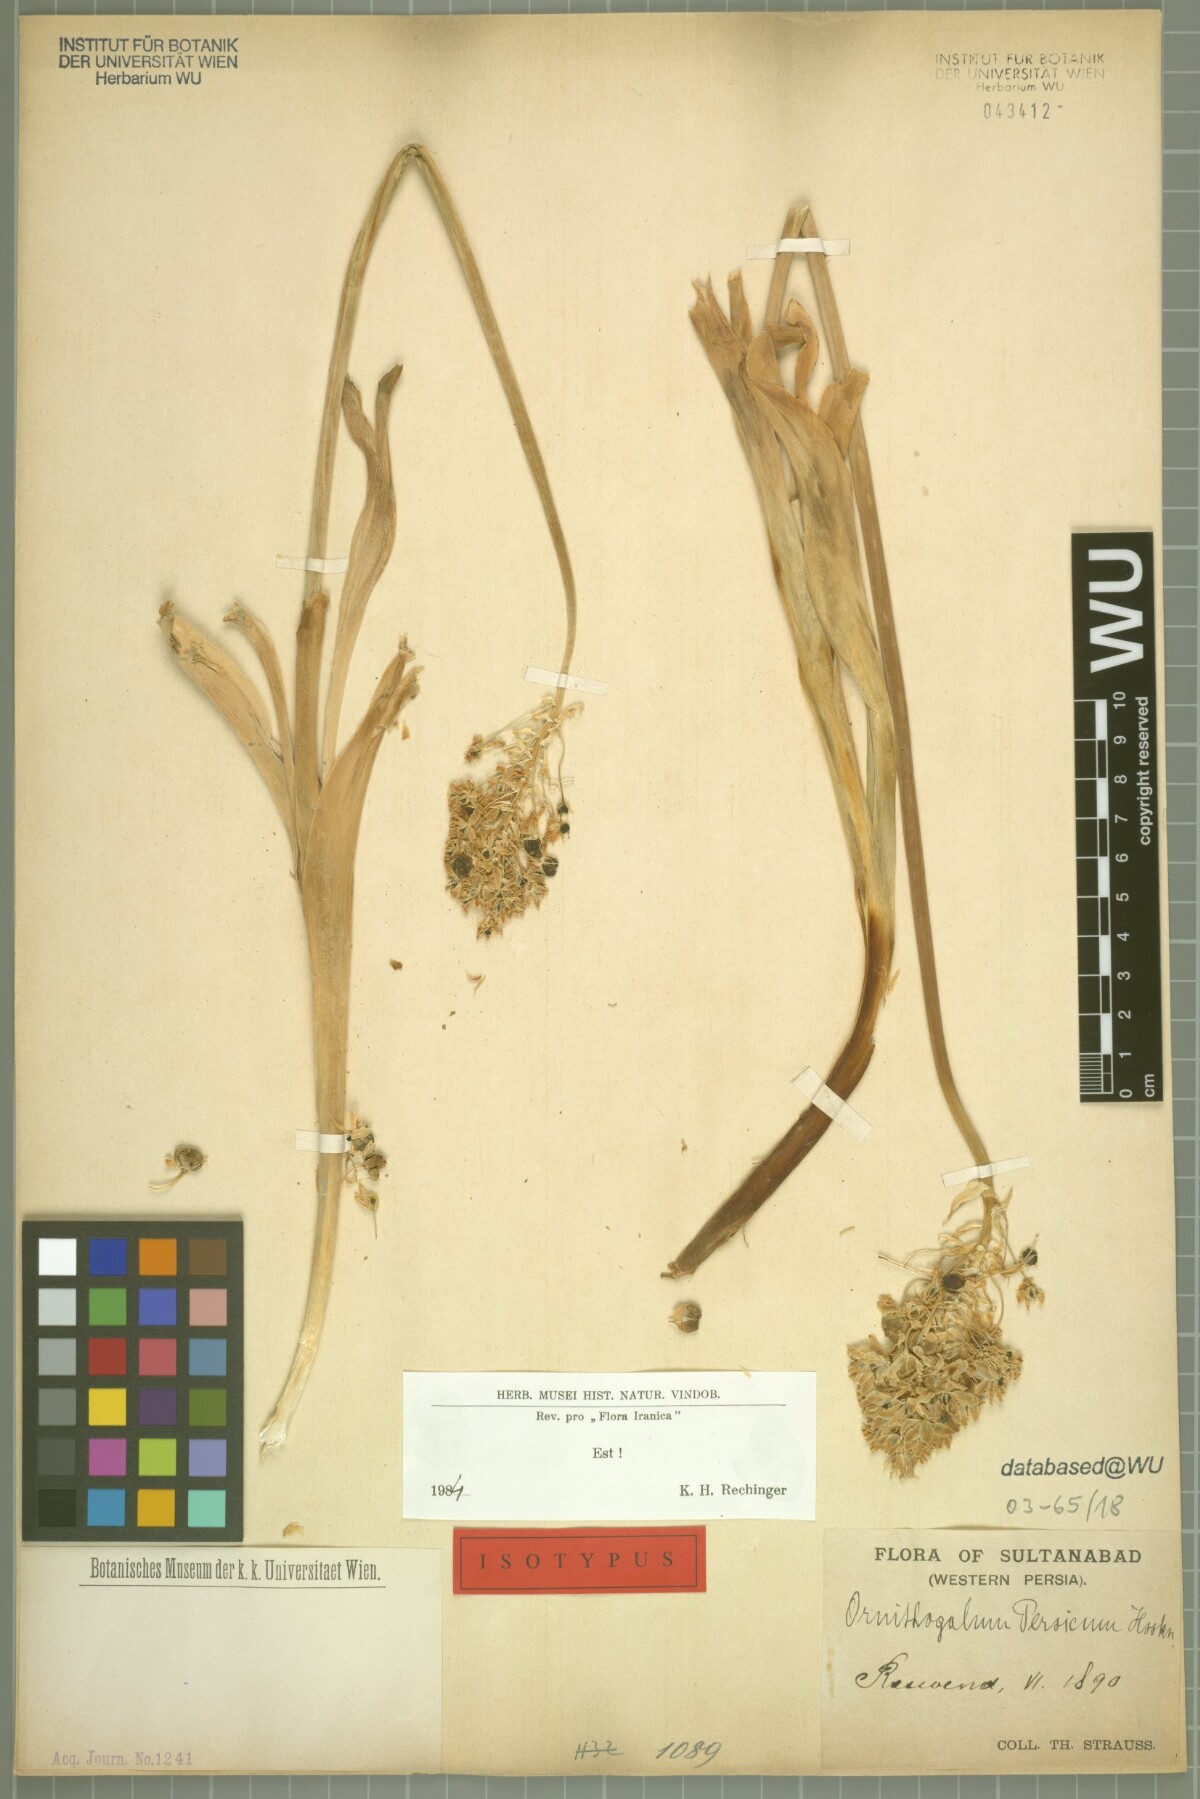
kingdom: Plantae
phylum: Tracheophyta
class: Liliopsida
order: Asparagales
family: Asparagaceae
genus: Ornithogalum
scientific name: Ornithogalum persicum
